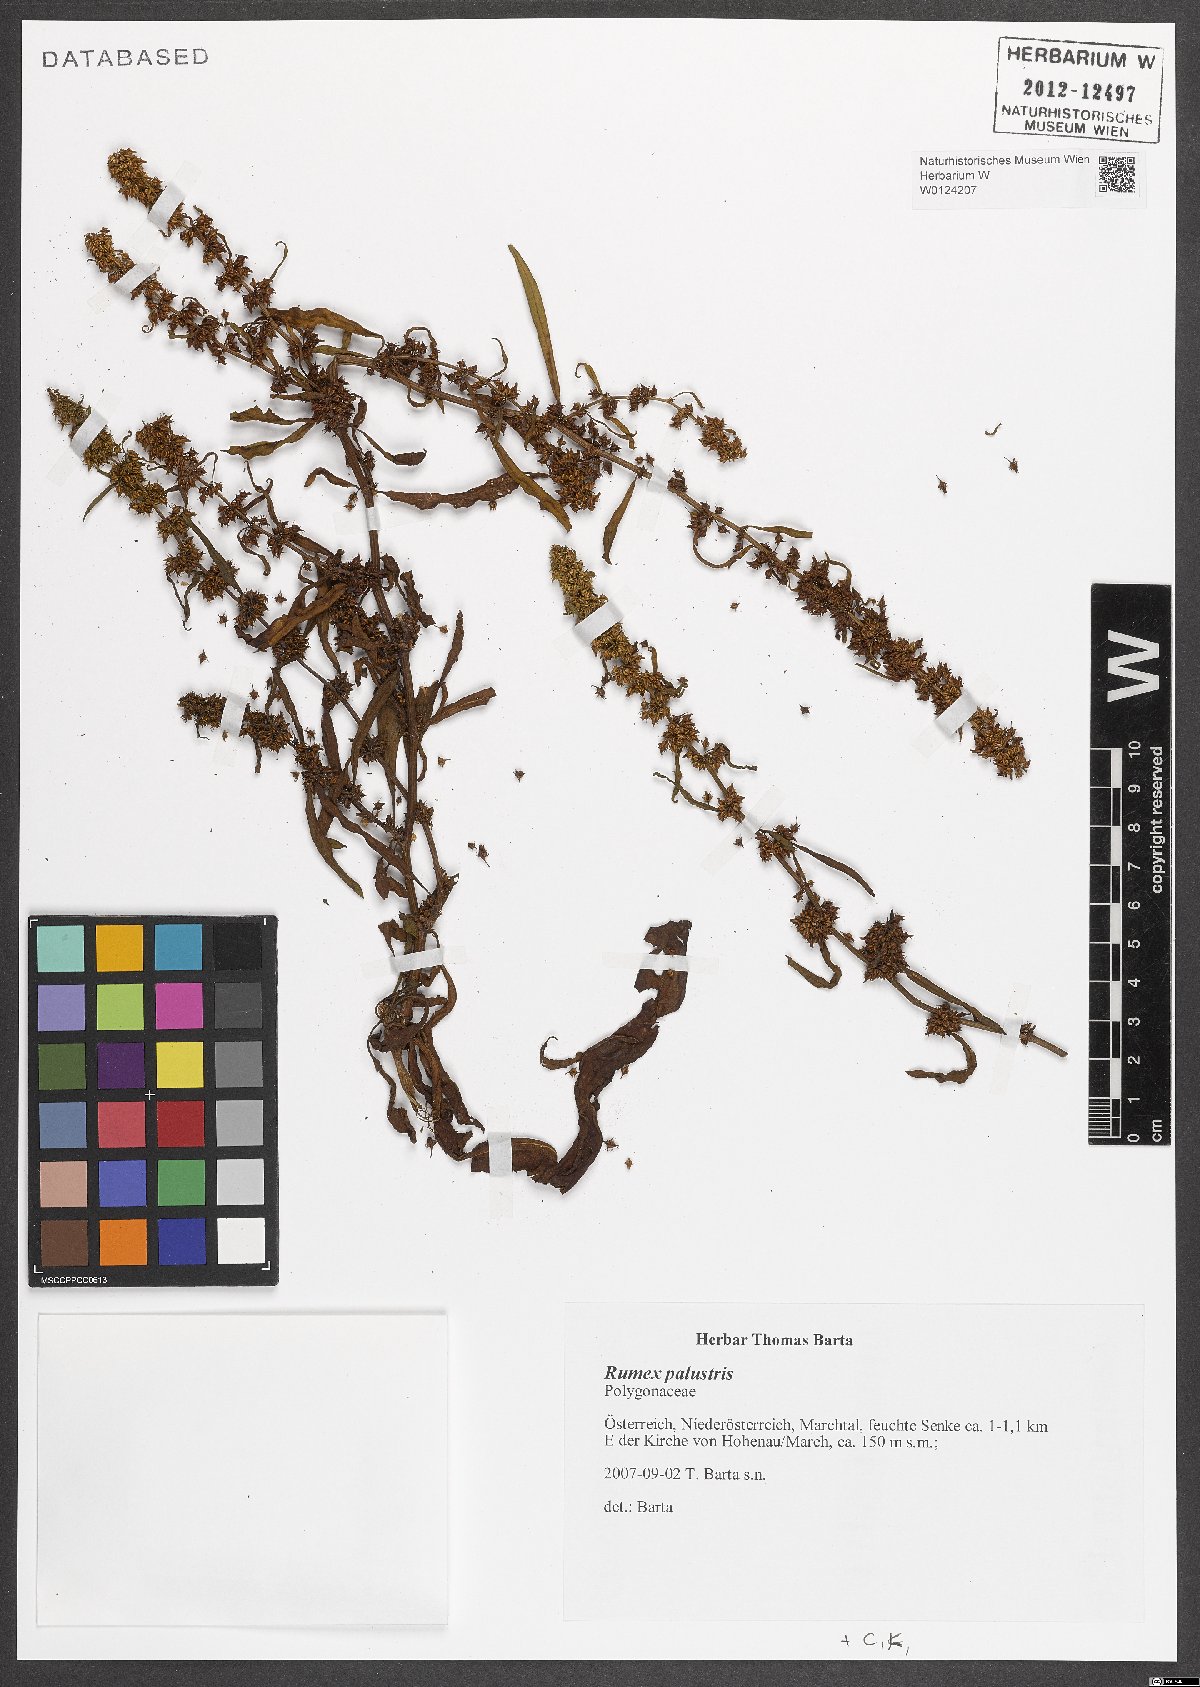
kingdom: Plantae
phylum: Tracheophyta
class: Magnoliopsida
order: Caryophyllales
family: Polygonaceae
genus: Rumex
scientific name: Rumex palustris
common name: Marsh dock
